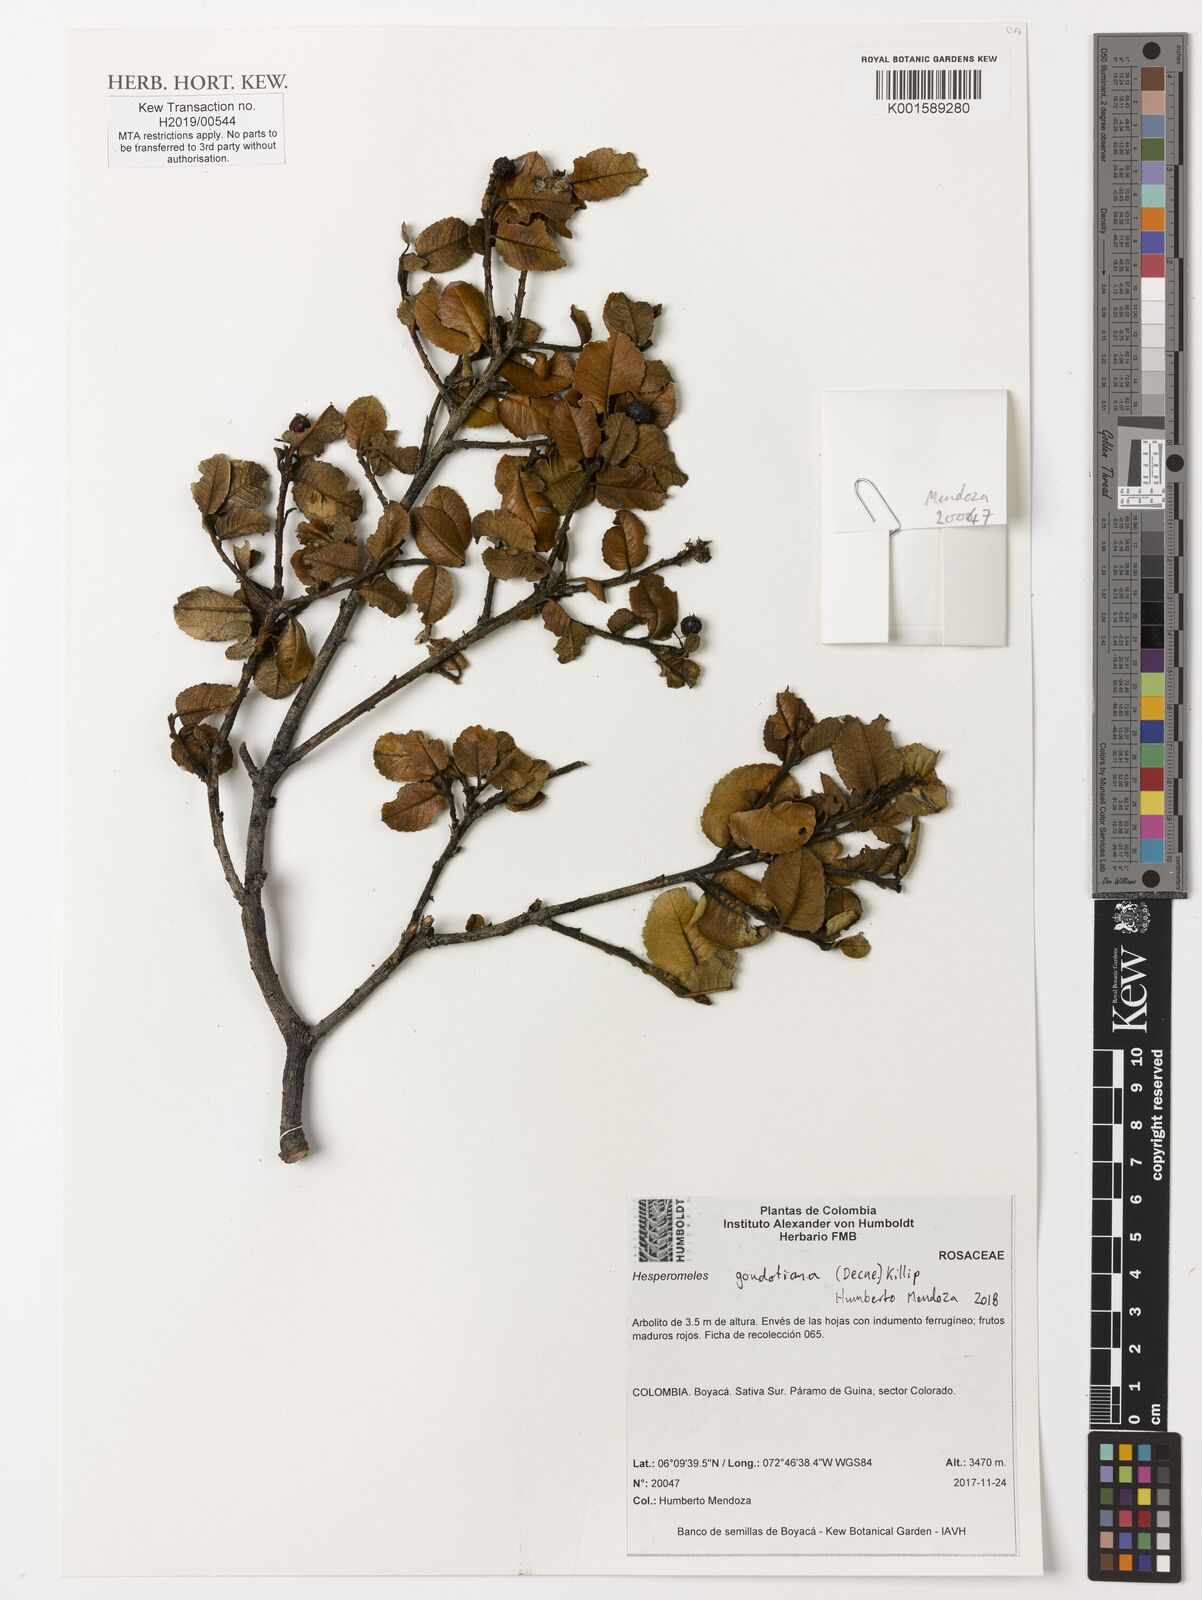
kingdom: Plantae
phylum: Tracheophyta
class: Magnoliopsida
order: Rosales
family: Rosaceae
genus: Hesperomeles
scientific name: Hesperomeles goudotiana
